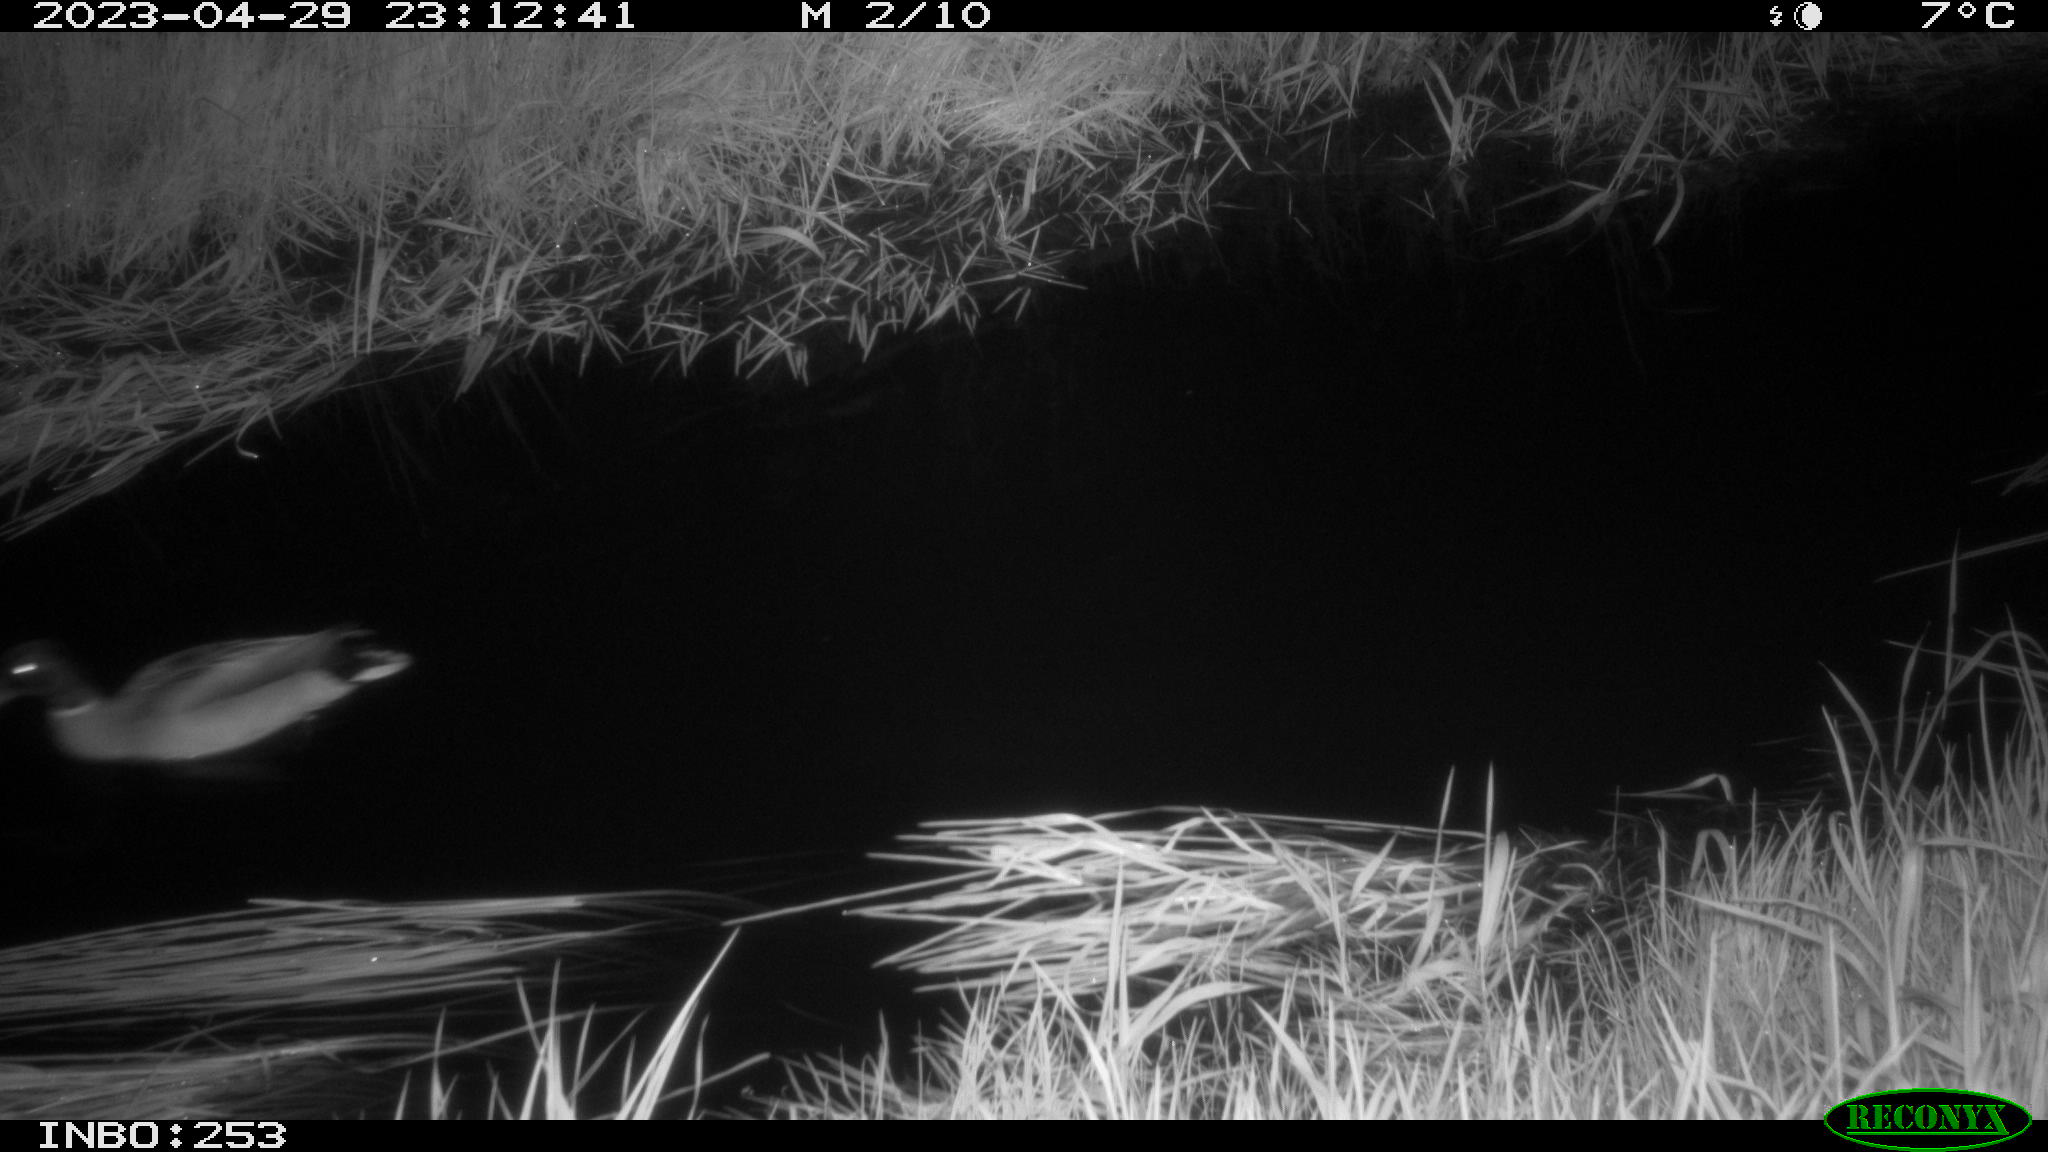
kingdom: Animalia
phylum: Chordata
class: Aves
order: Anseriformes
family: Anatidae
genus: Anas
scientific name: Anas
